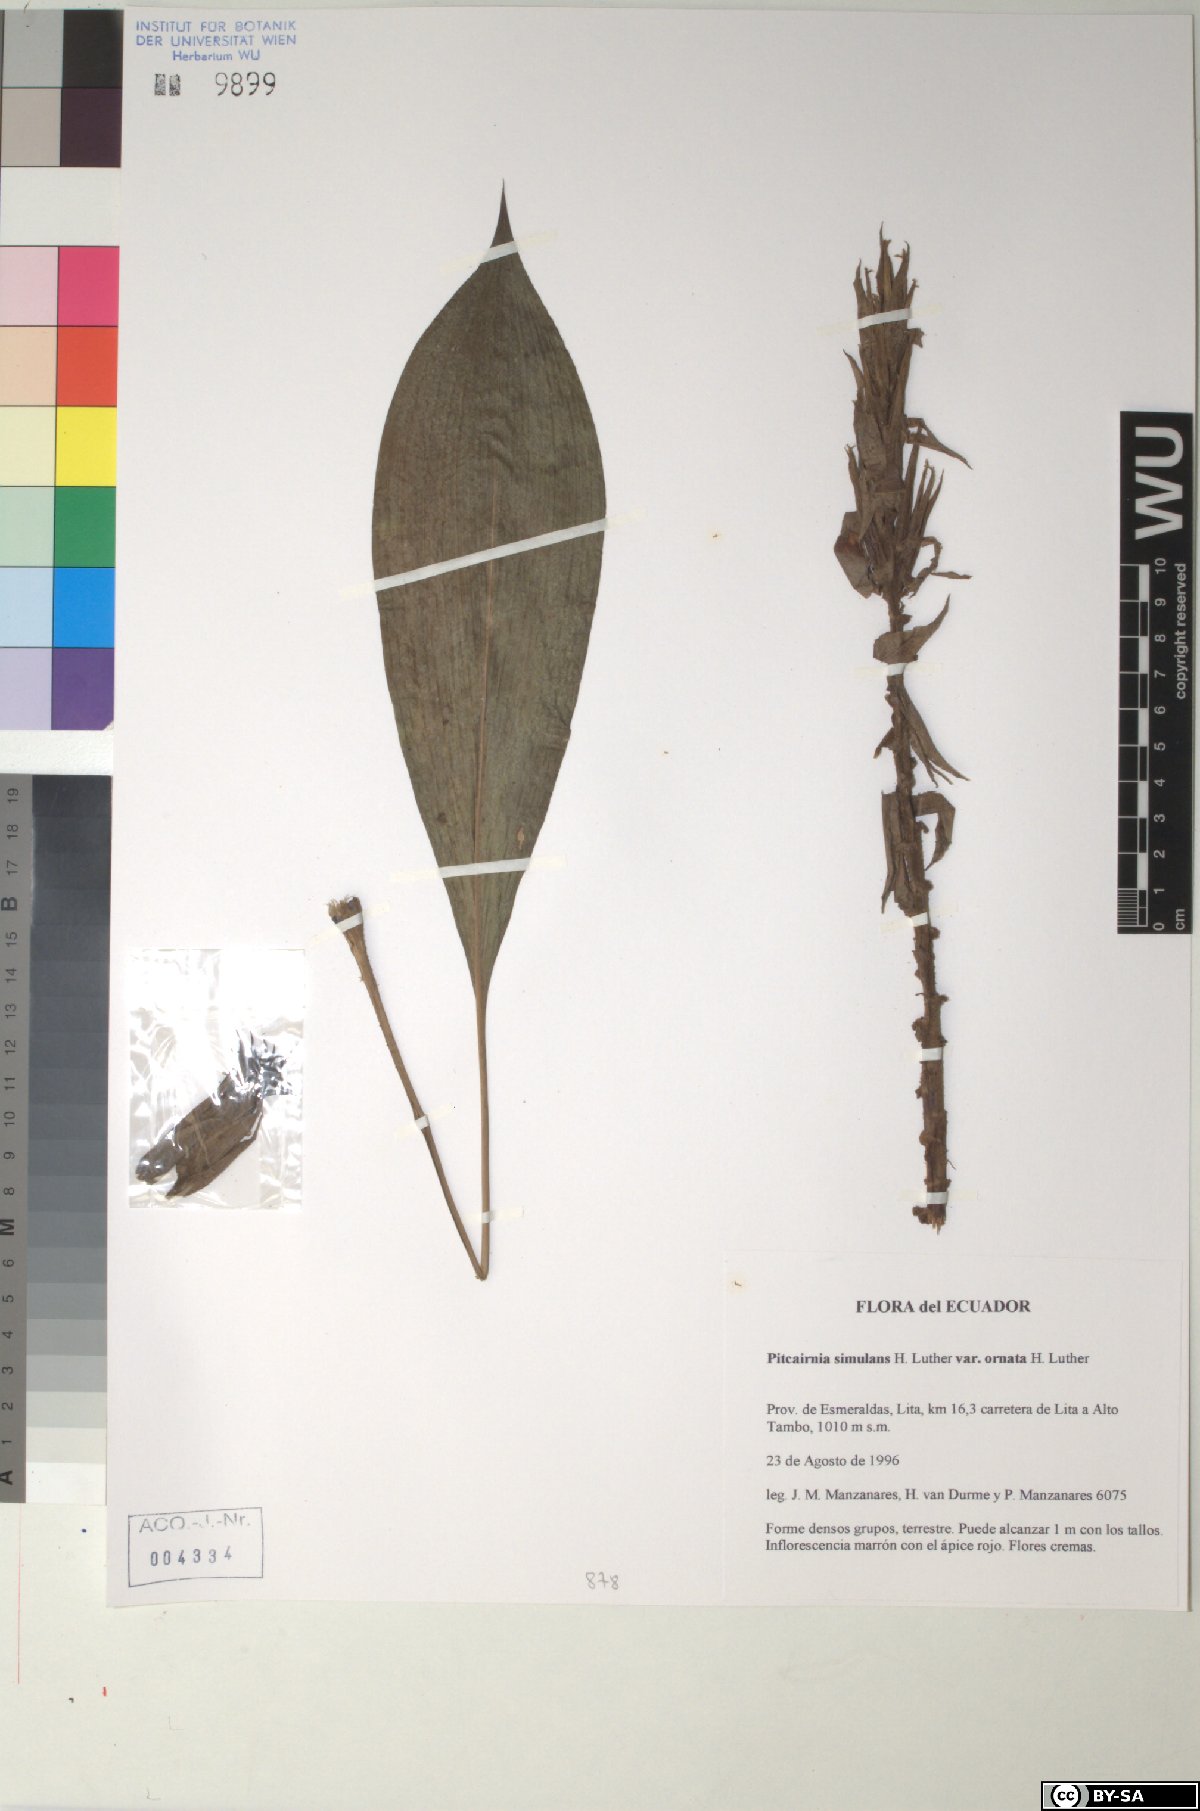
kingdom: Plantae
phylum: Tracheophyta
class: Liliopsida
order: Poales
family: Bromeliaceae
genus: Pitcairnia
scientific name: Pitcairnia simulans
